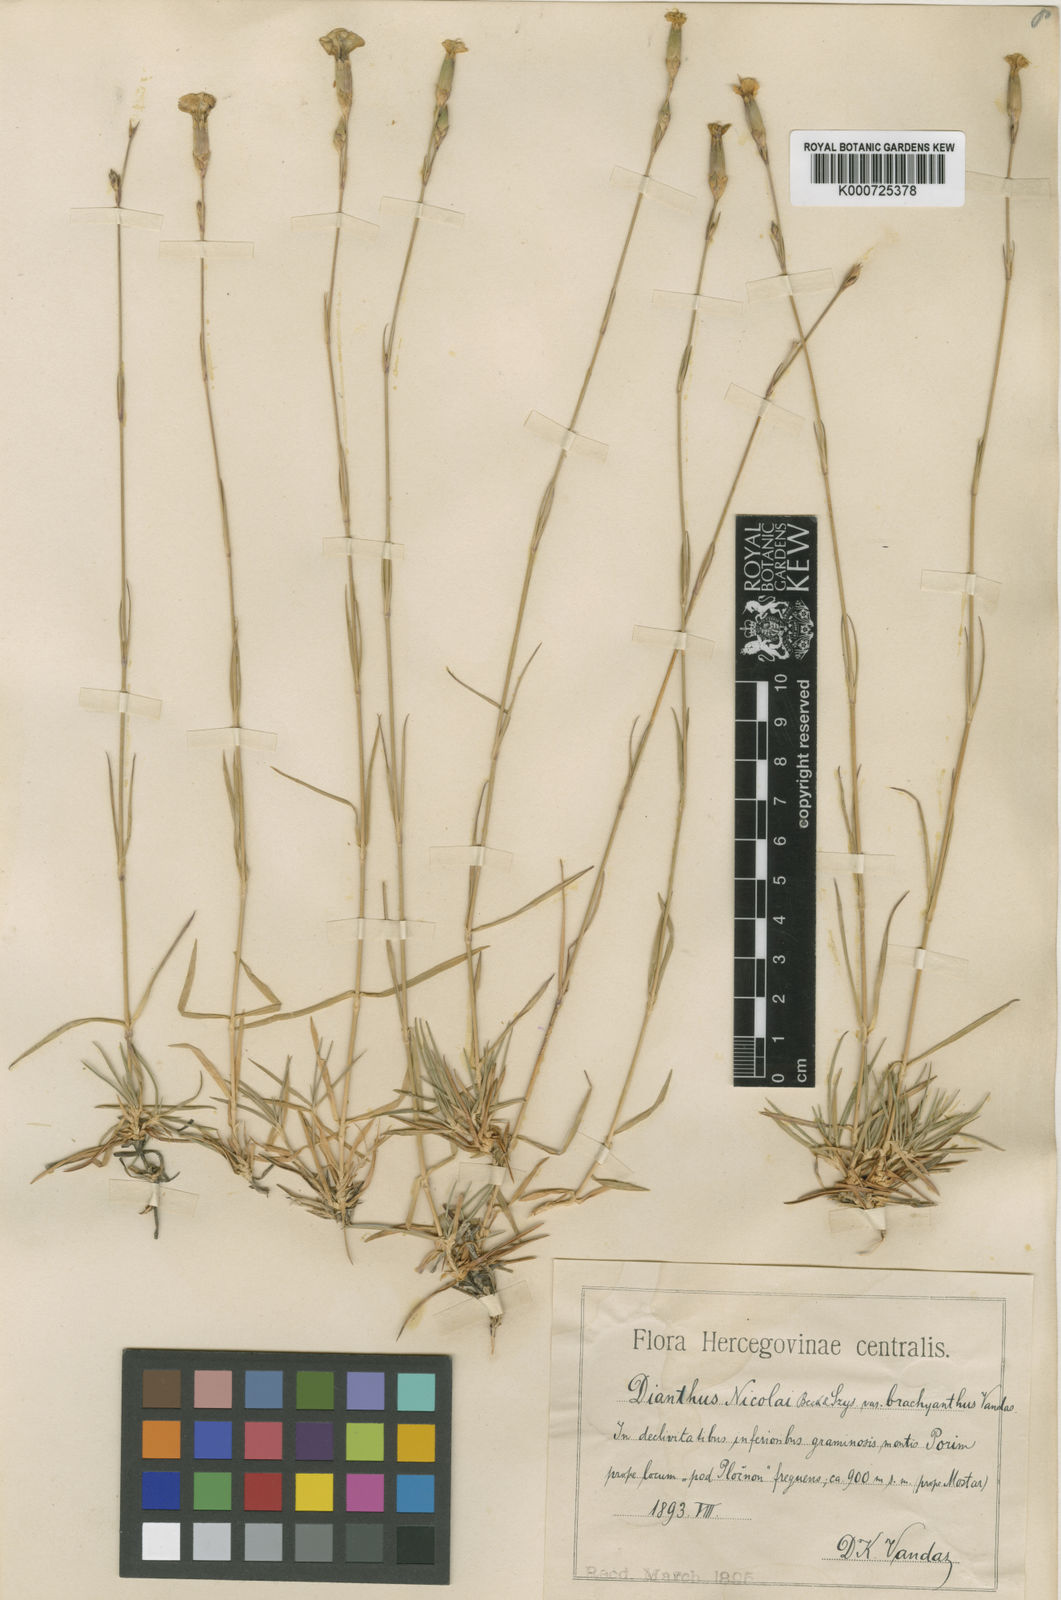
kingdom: Plantae
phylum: Tracheophyta
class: Magnoliopsida
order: Caryophyllales
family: Caryophyllaceae
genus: Dianthus
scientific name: Dianthus
